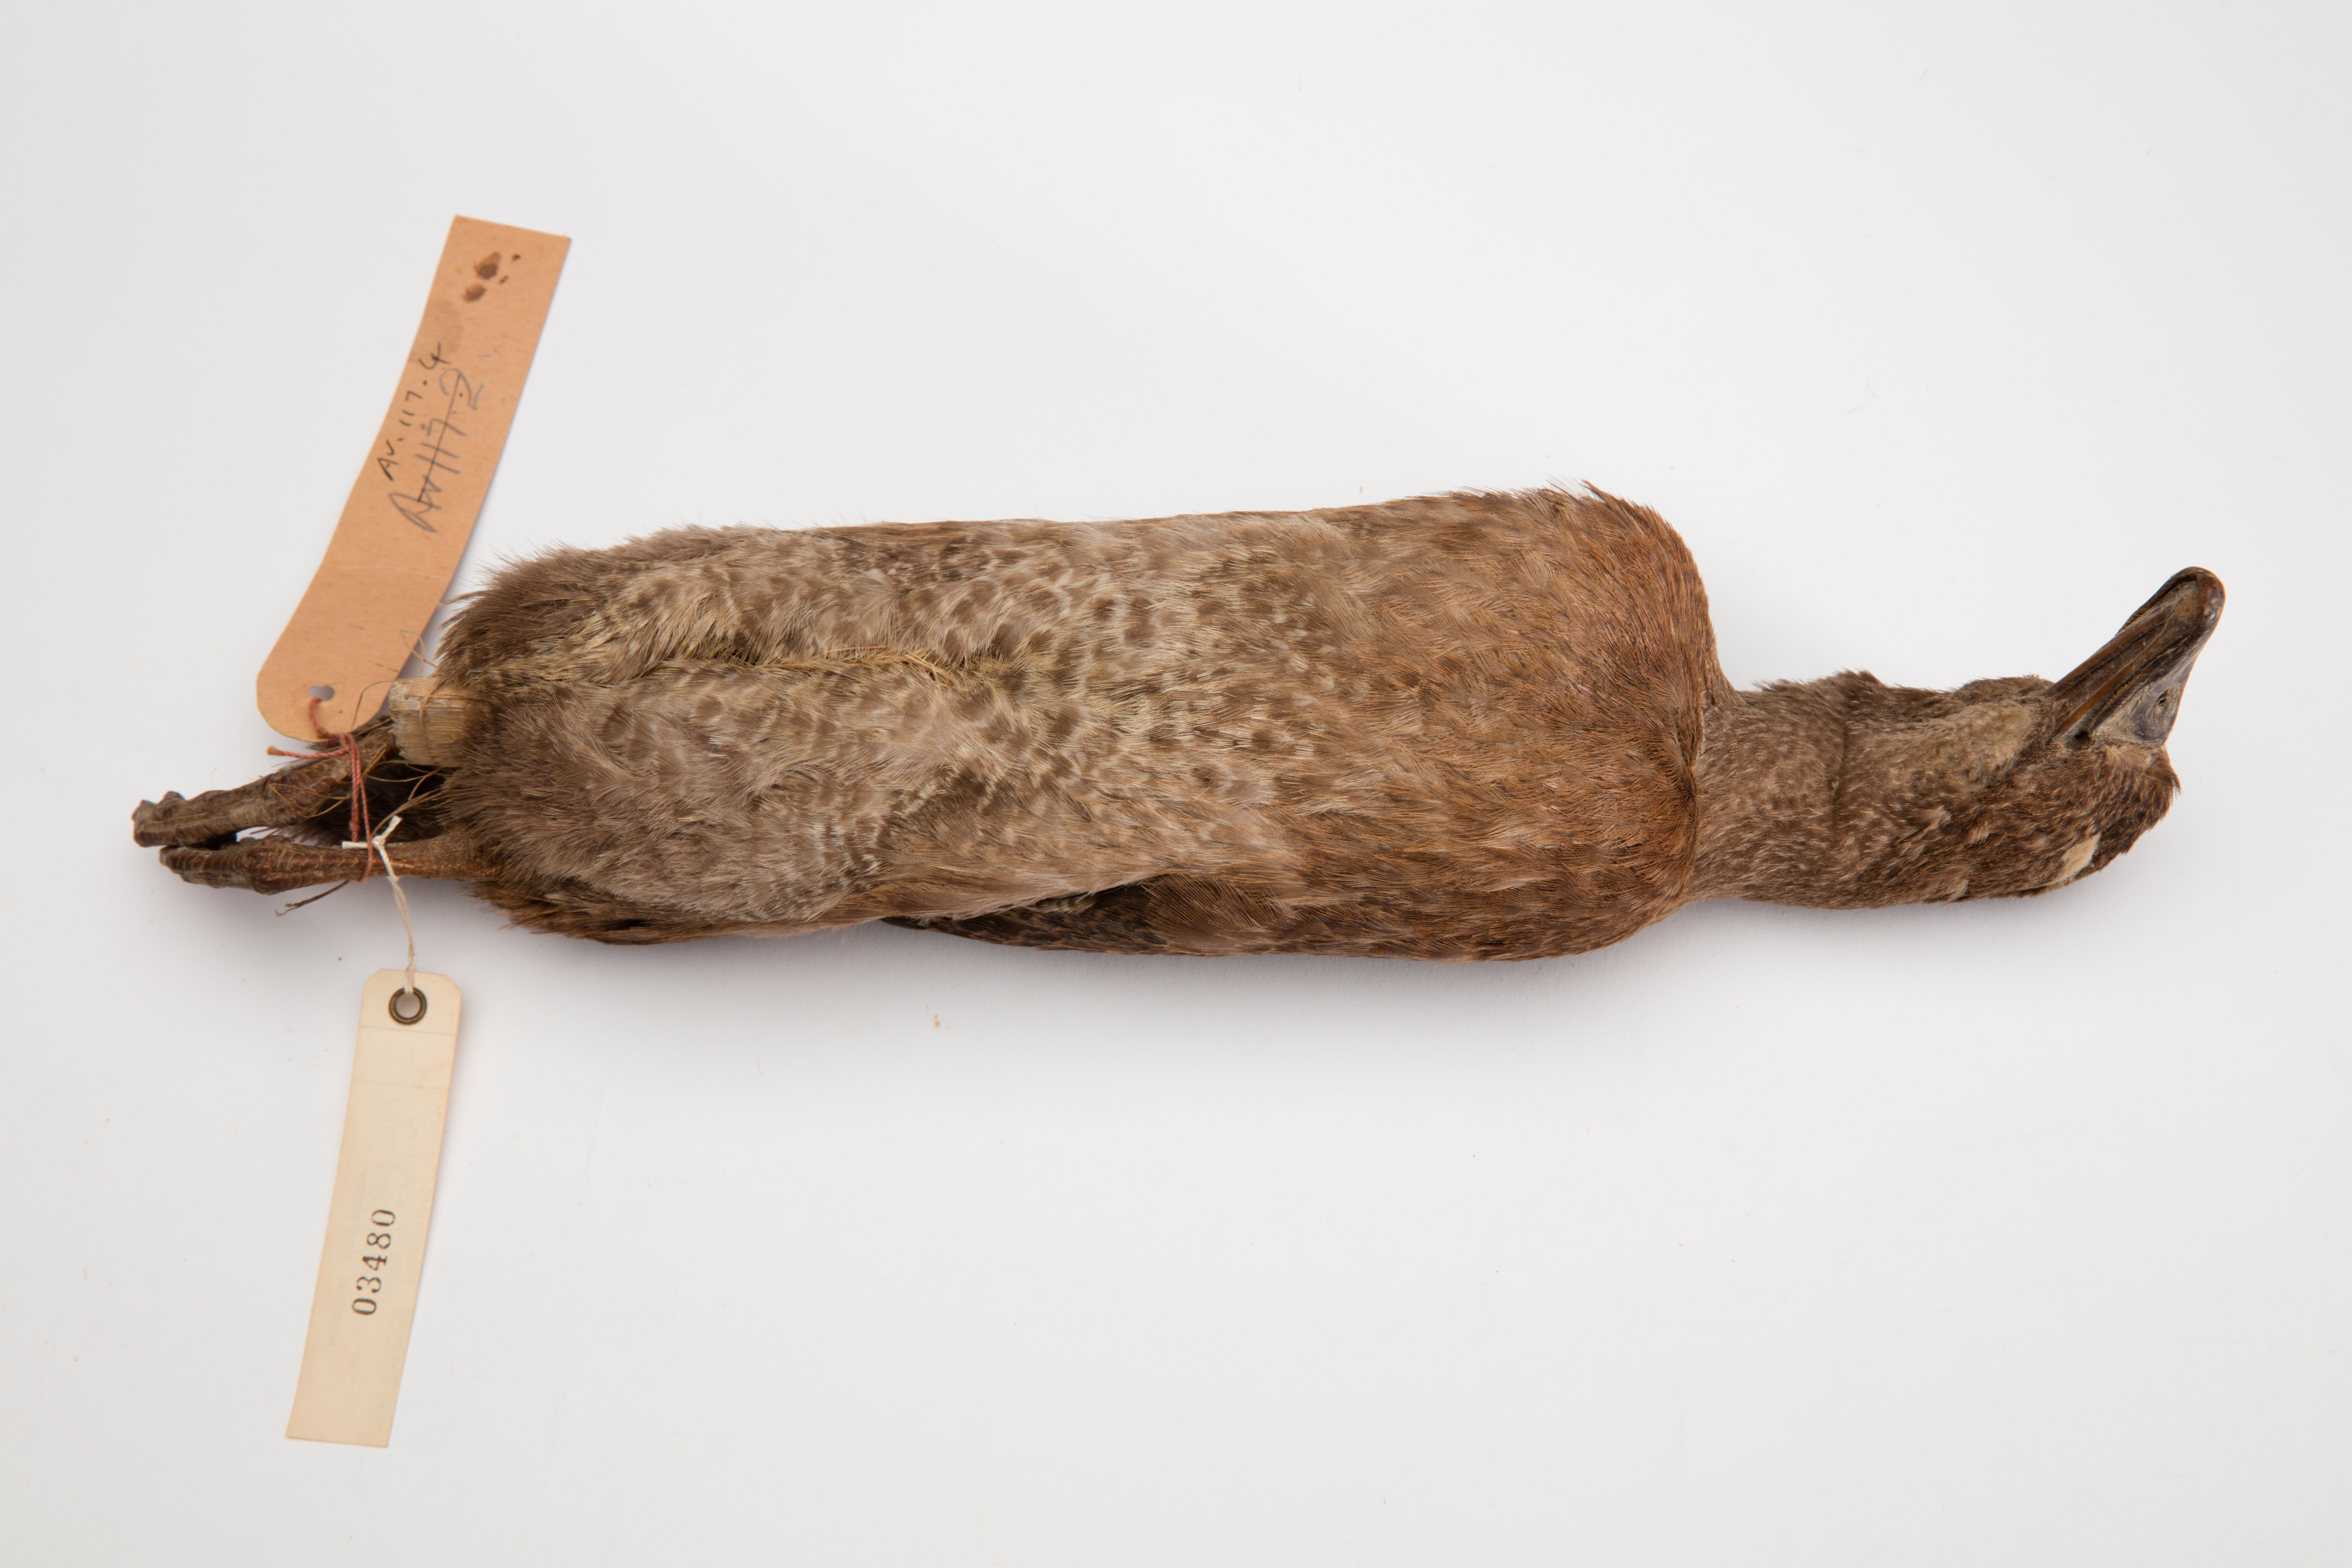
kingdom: Animalia
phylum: Chordata
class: Aves
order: Anseriformes
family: Anatidae
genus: Anas
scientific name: Anas aucklandica
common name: Auckland teal
